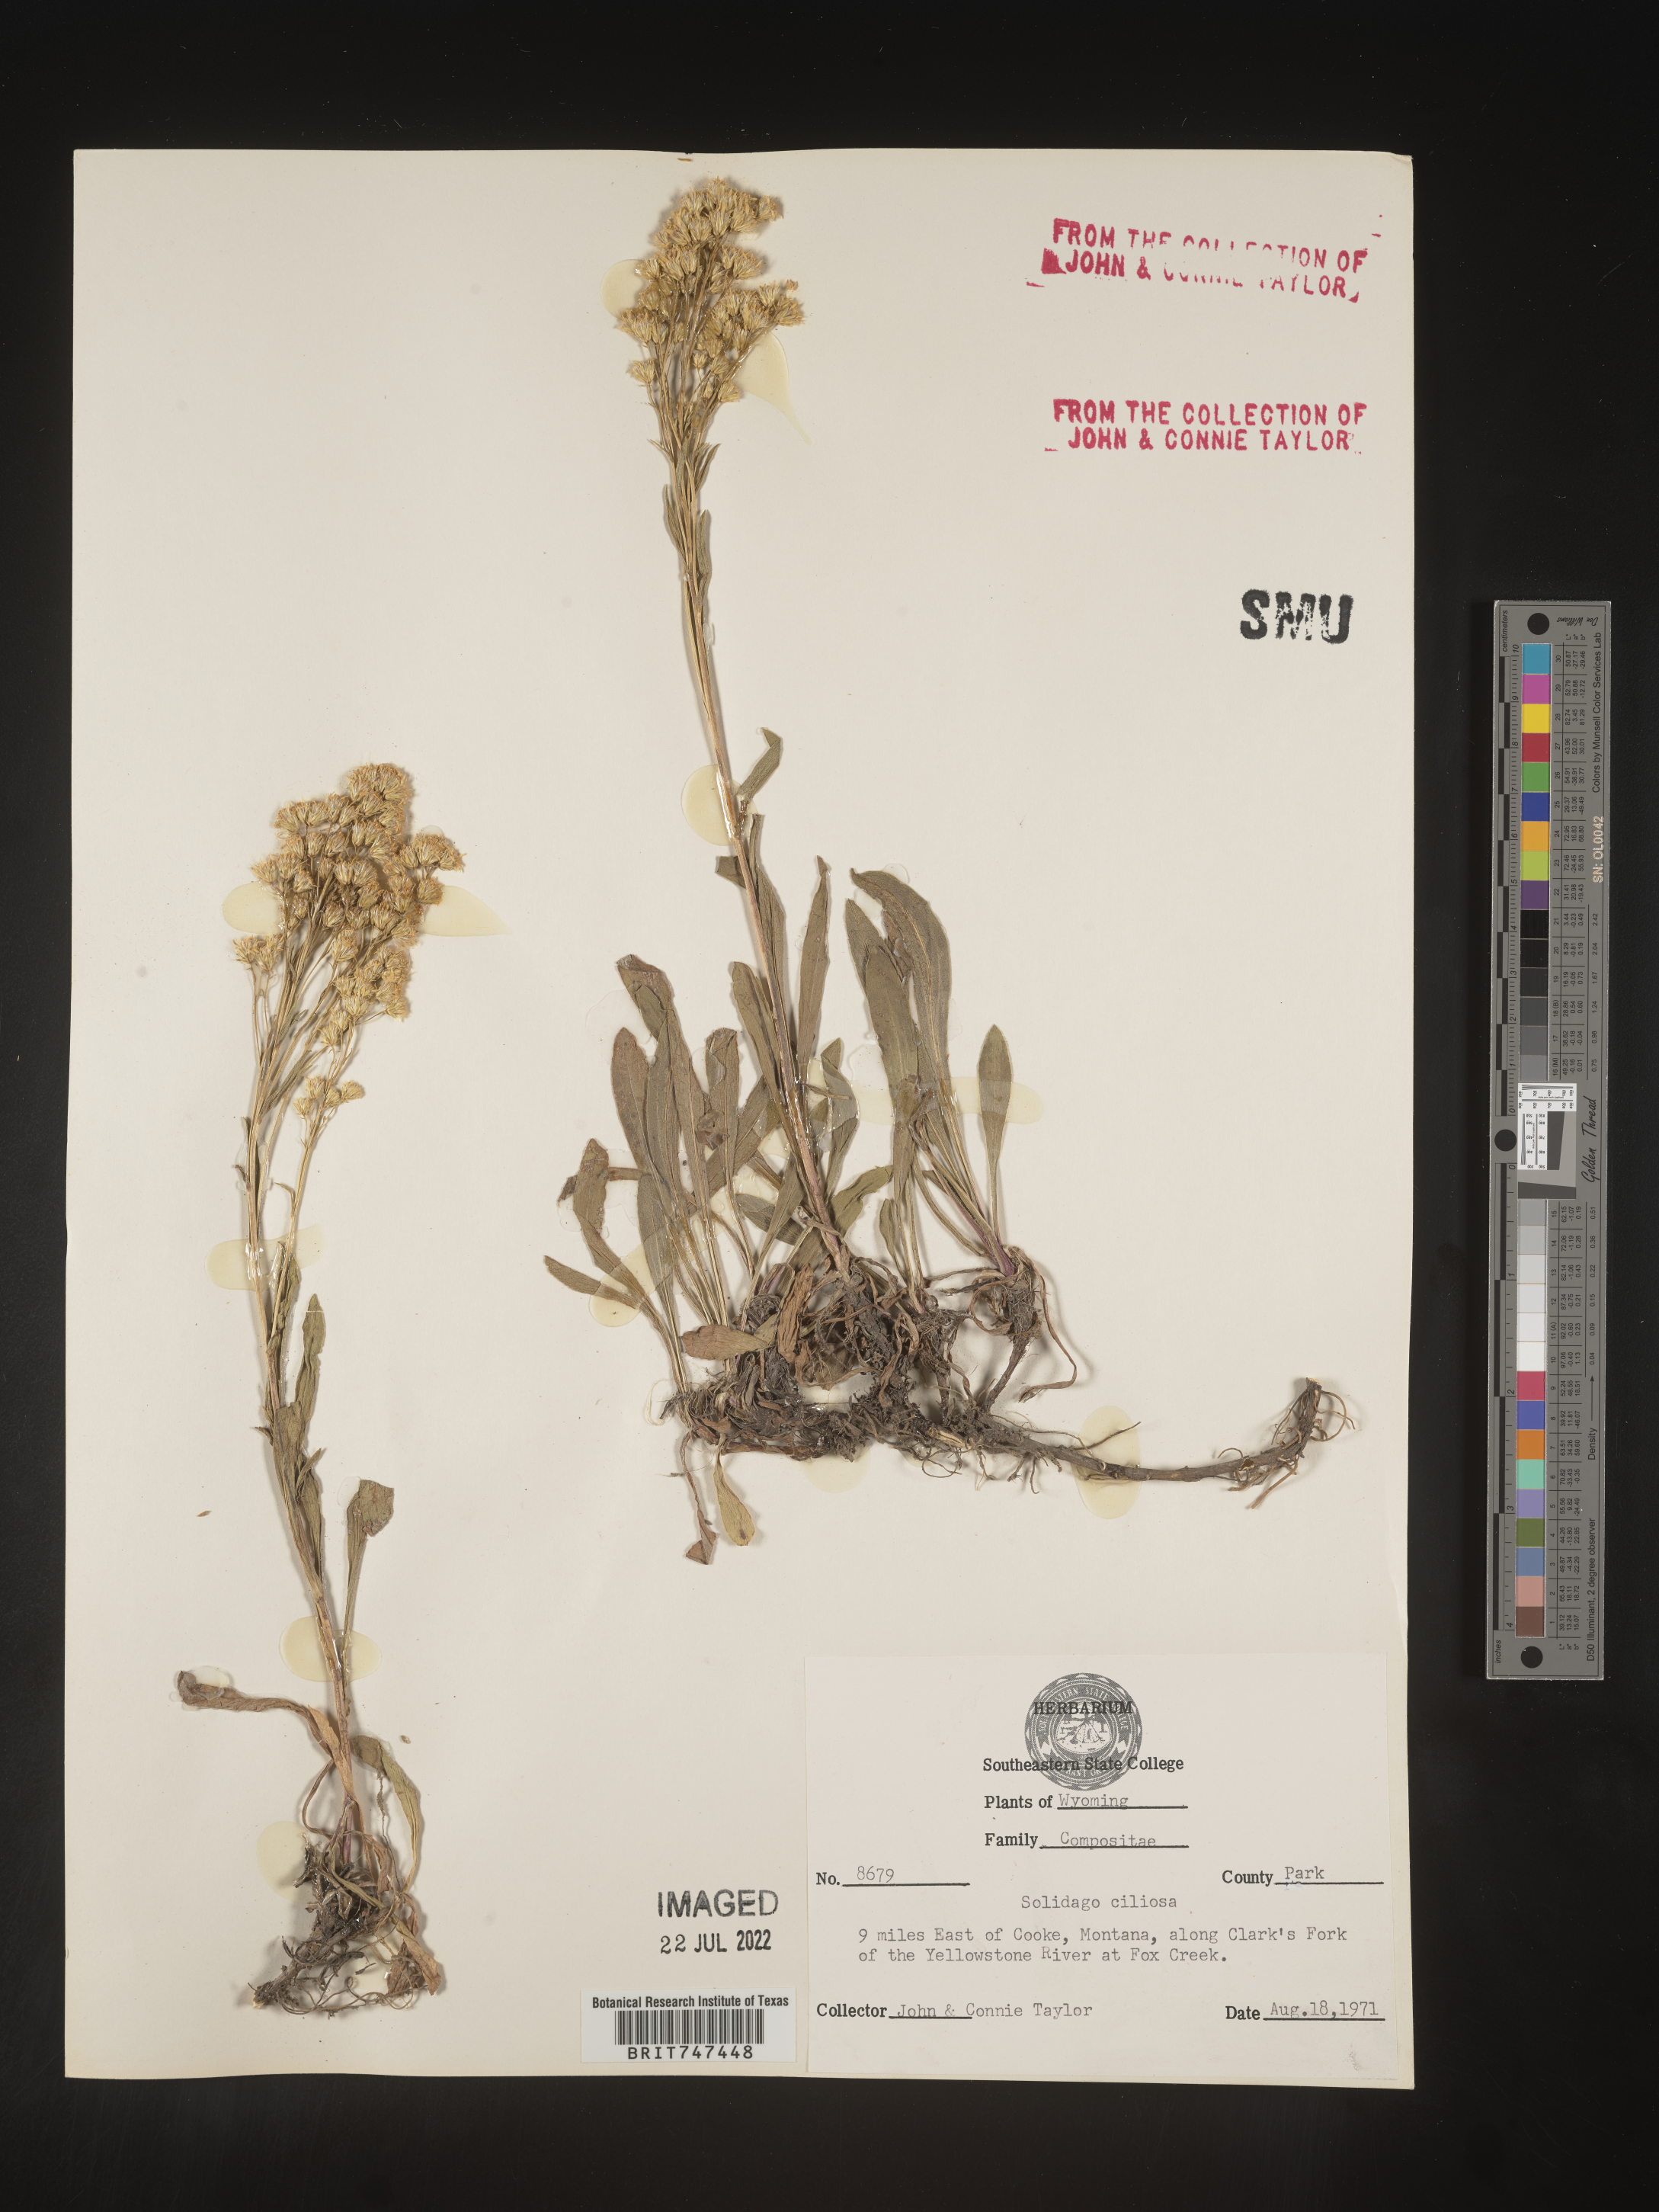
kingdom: Plantae
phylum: Tracheophyta
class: Magnoliopsida
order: Asterales
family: Asteraceae
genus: Solidago
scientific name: Solidago multiradiata
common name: Northern goldenrod
